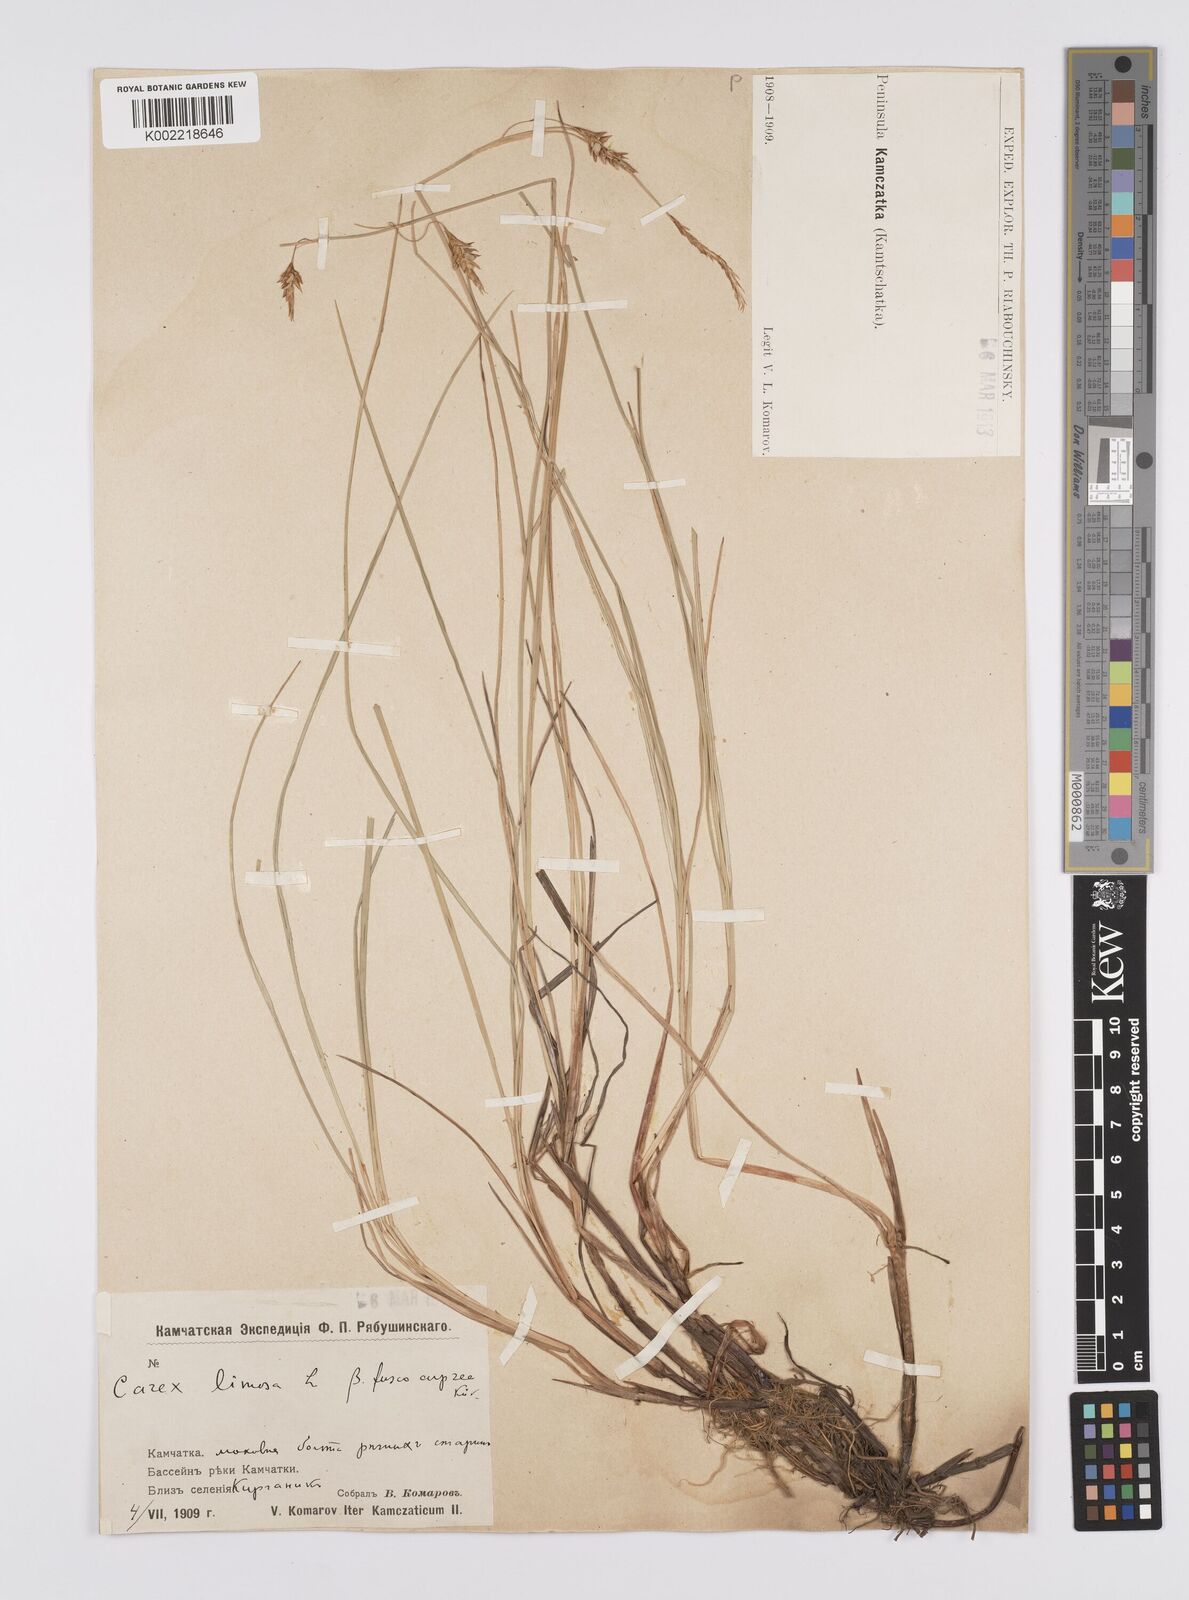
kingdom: Plantae
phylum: Tracheophyta
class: Liliopsida
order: Poales
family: Cyperaceae
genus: Carex
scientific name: Carex limosa
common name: Bog sedge
